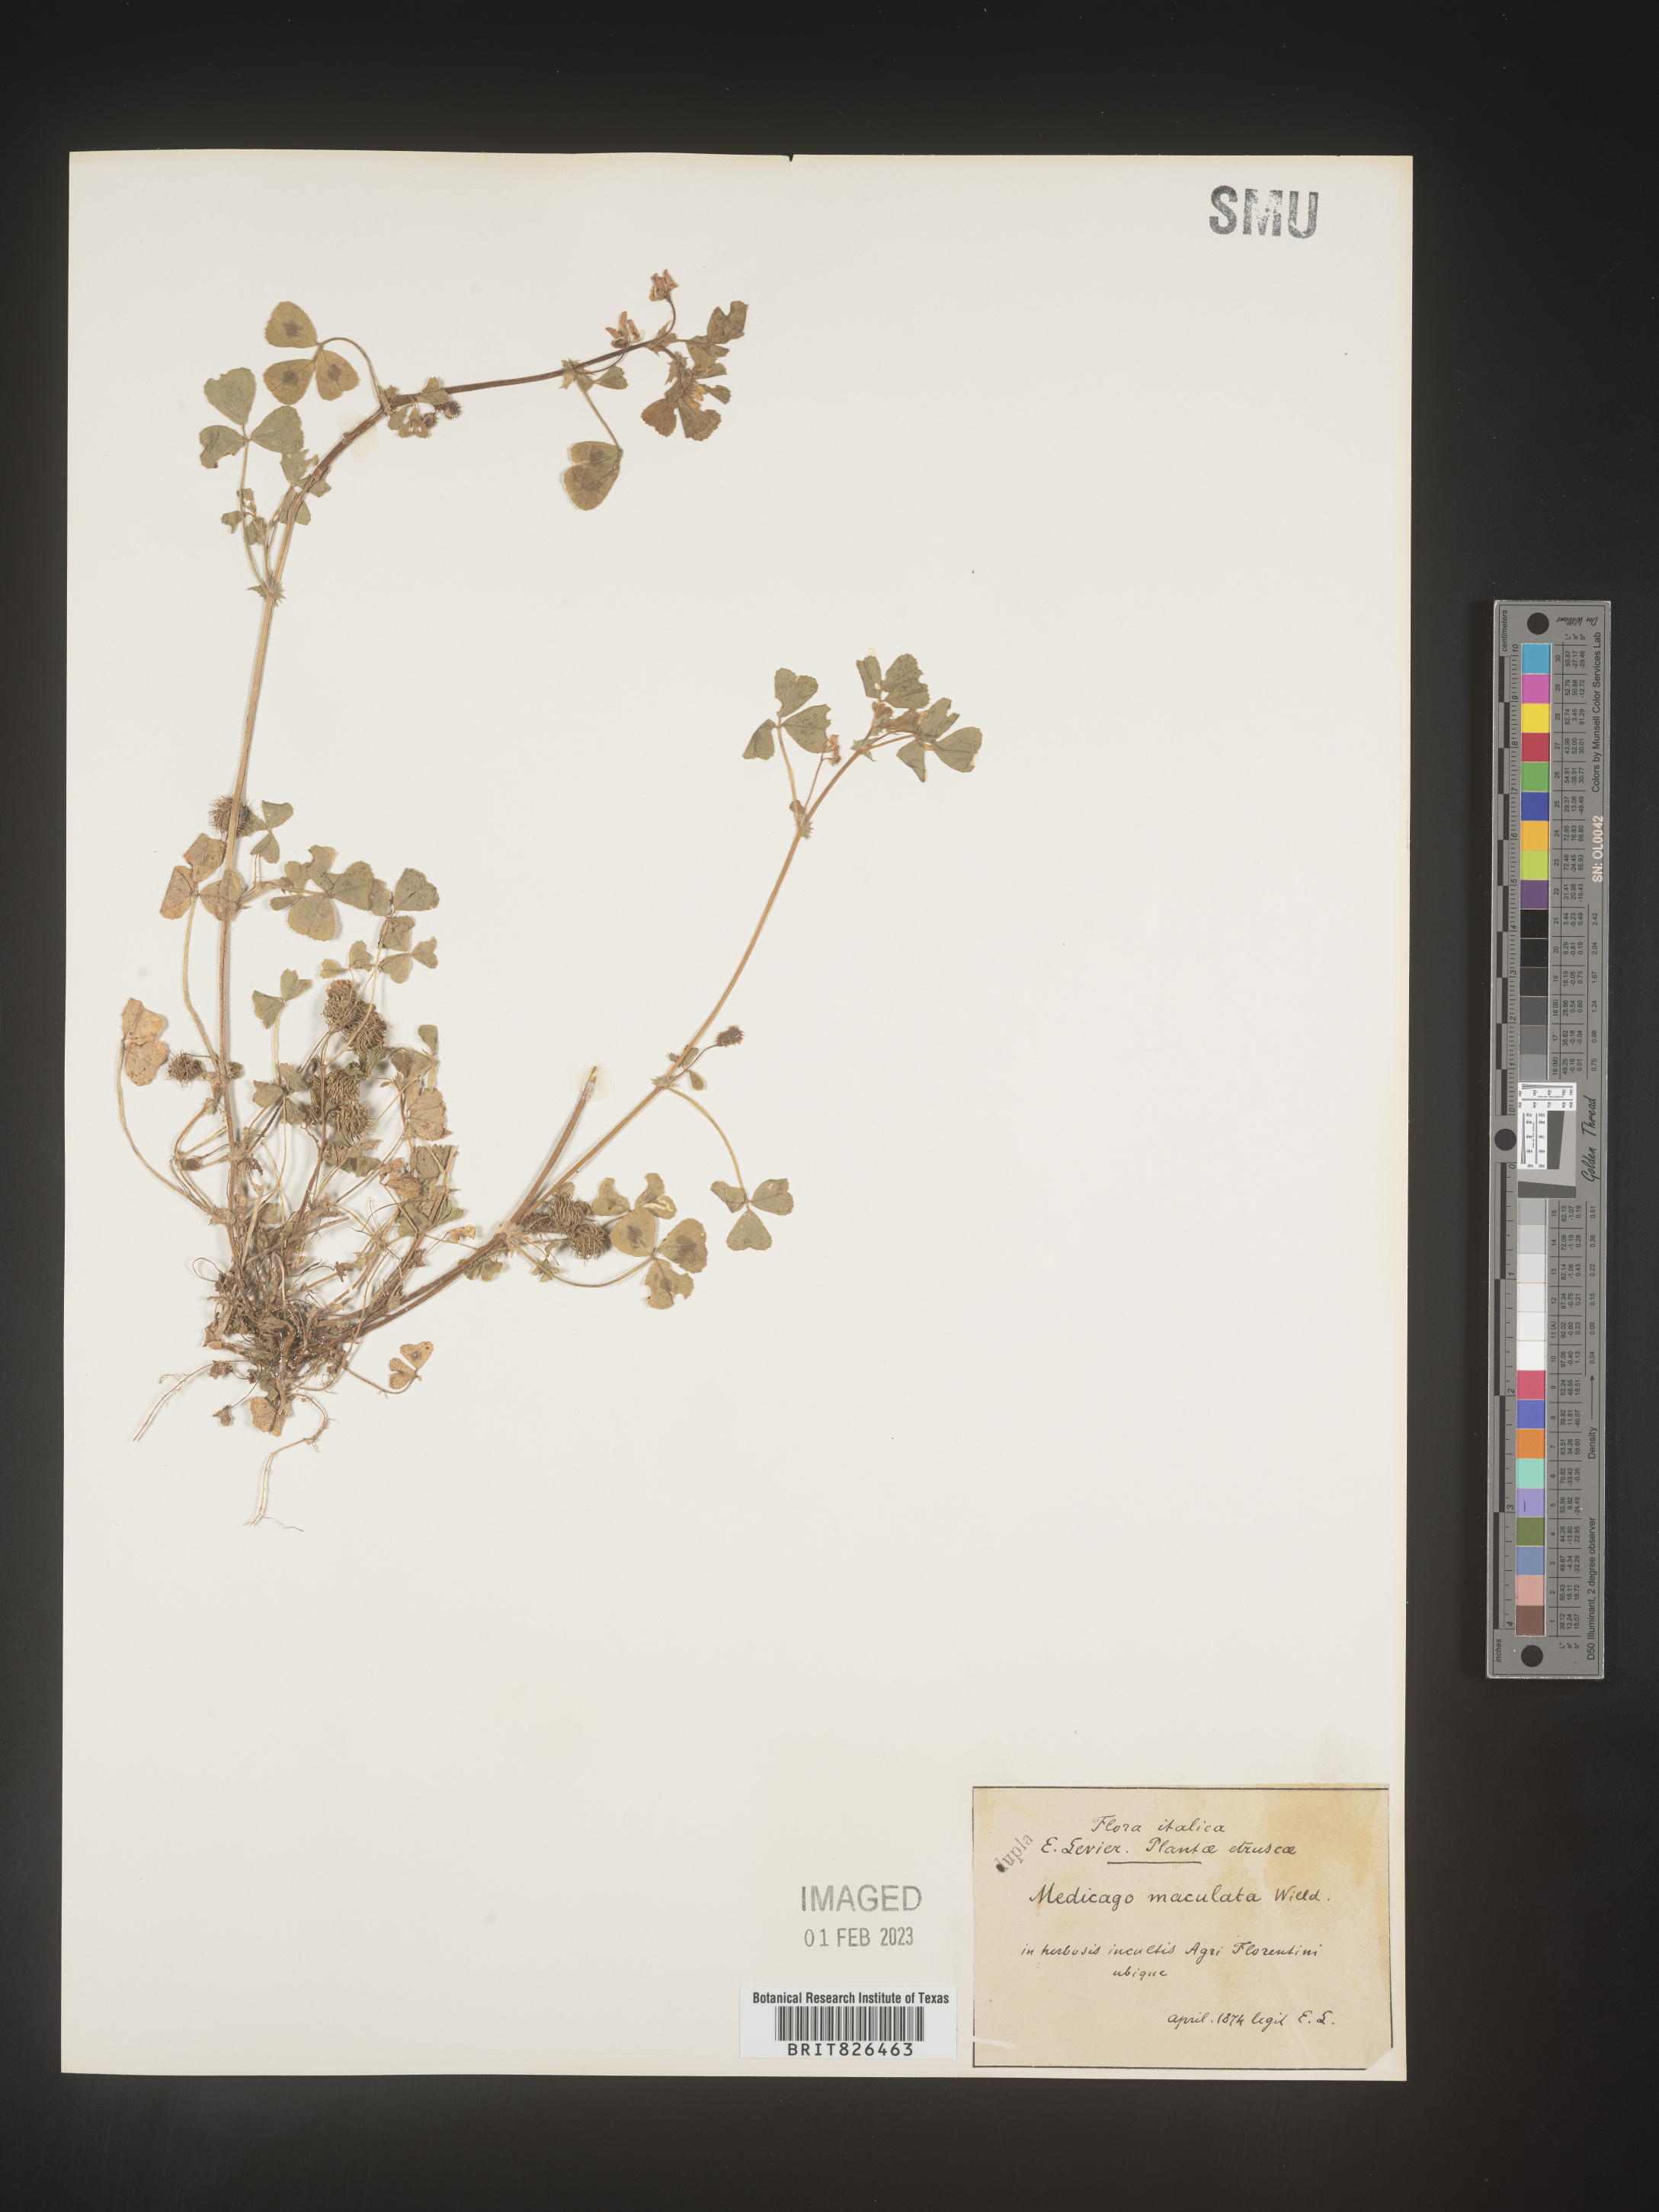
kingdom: Plantae
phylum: Tracheophyta
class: Magnoliopsida
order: Fabales
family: Fabaceae
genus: Medicago
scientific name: Medicago
